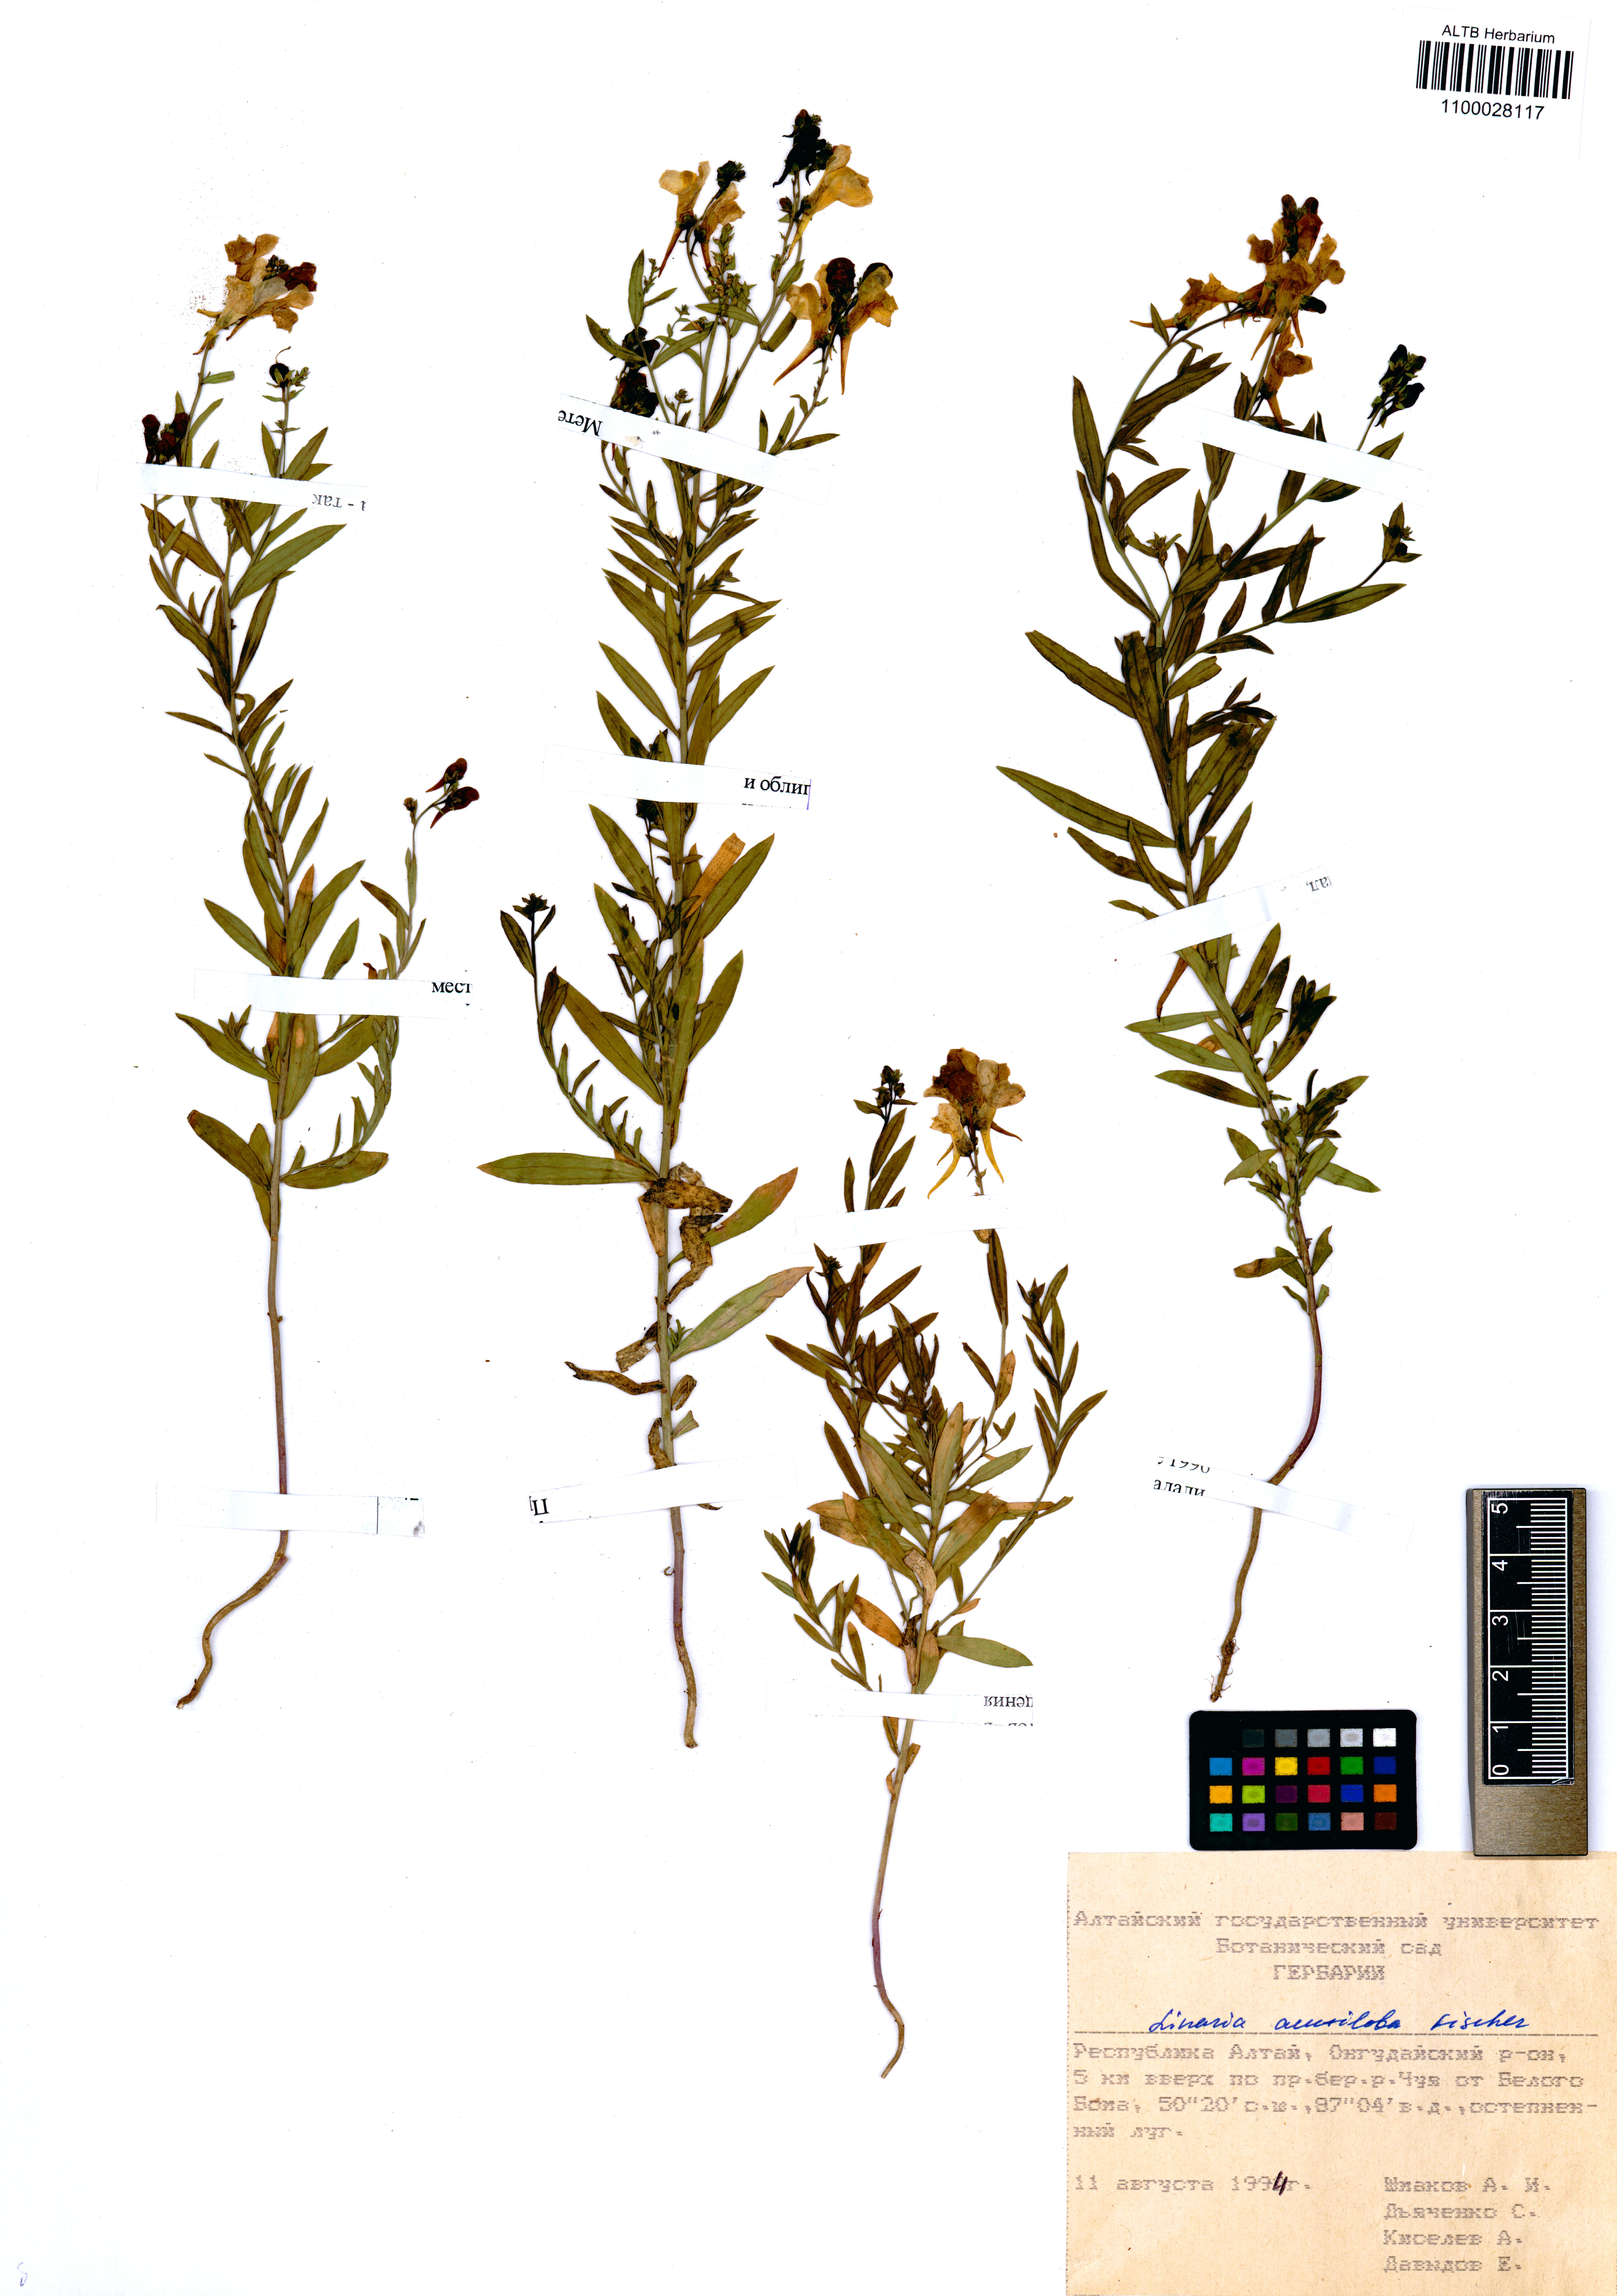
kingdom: Plantae
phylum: Tracheophyta
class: Magnoliopsida
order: Lamiales
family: Plantaginaceae
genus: Linaria
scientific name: Linaria acutiloba
